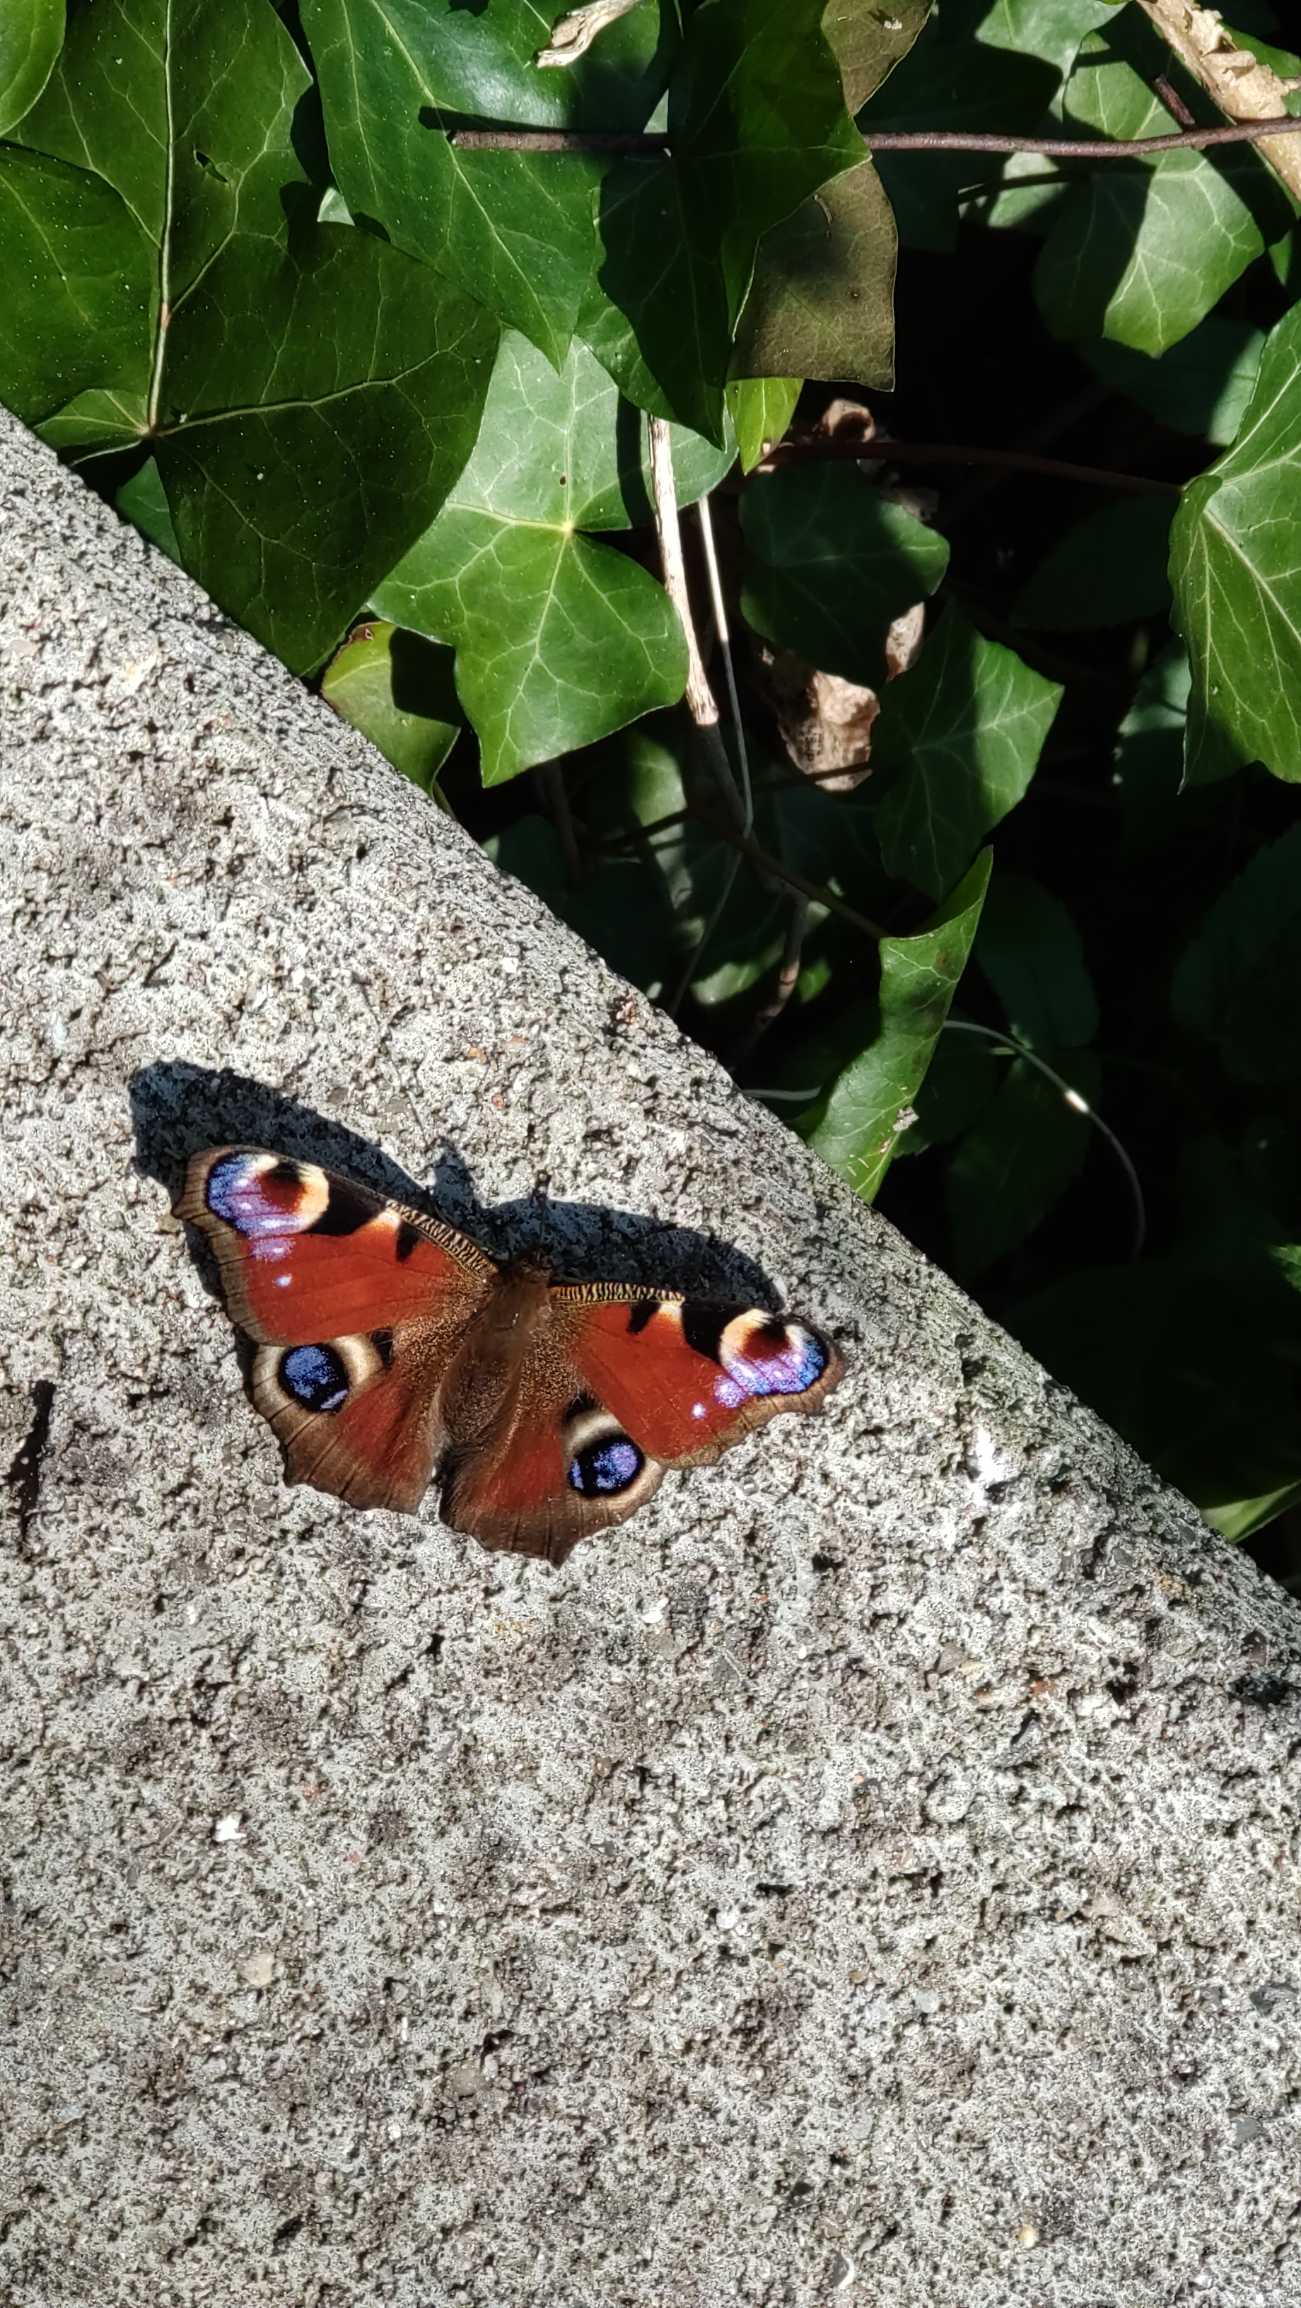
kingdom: Animalia
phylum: Arthropoda
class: Insecta
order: Lepidoptera
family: Nymphalidae
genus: Aglais
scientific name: Aglais io
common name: Dagpåfugleøje
